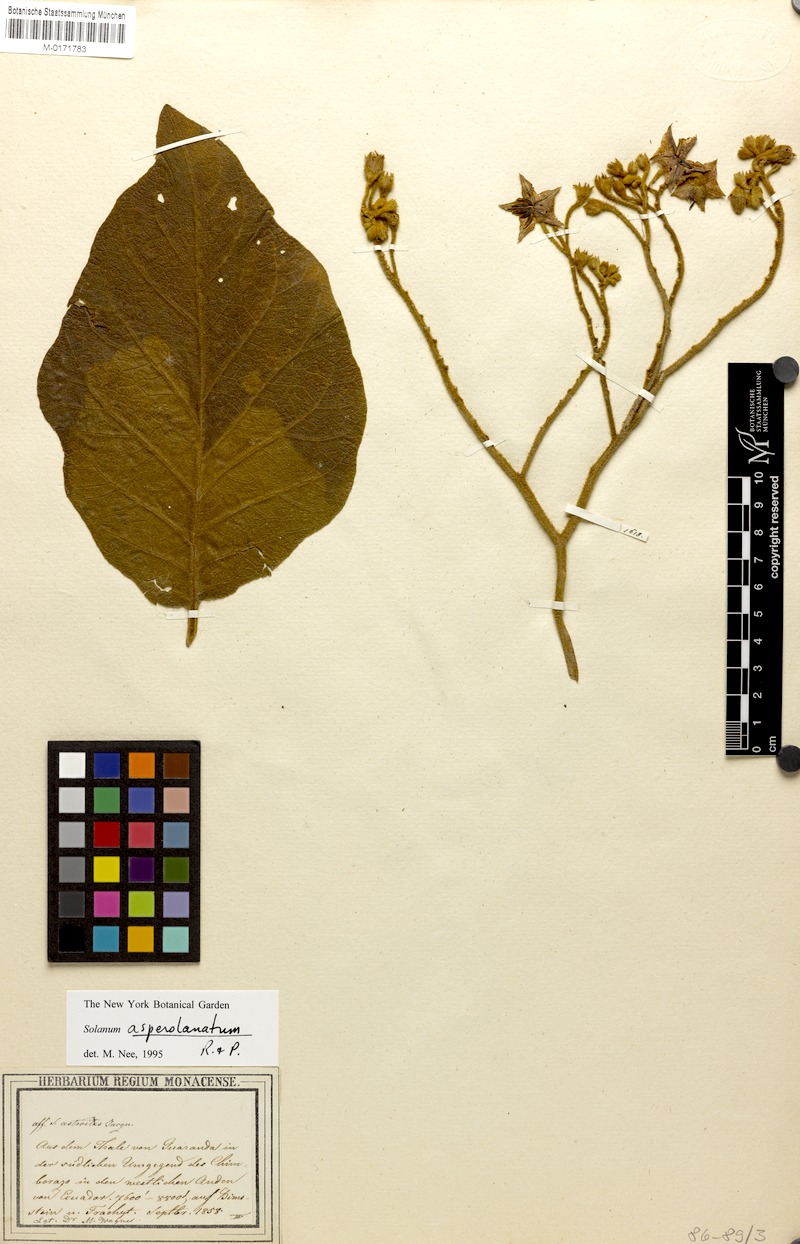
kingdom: Plantae
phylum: Tracheophyta
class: Magnoliopsida
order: Solanales
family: Solanaceae
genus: Solanum
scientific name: Solanum asperolanatum
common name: Devil's-fig
